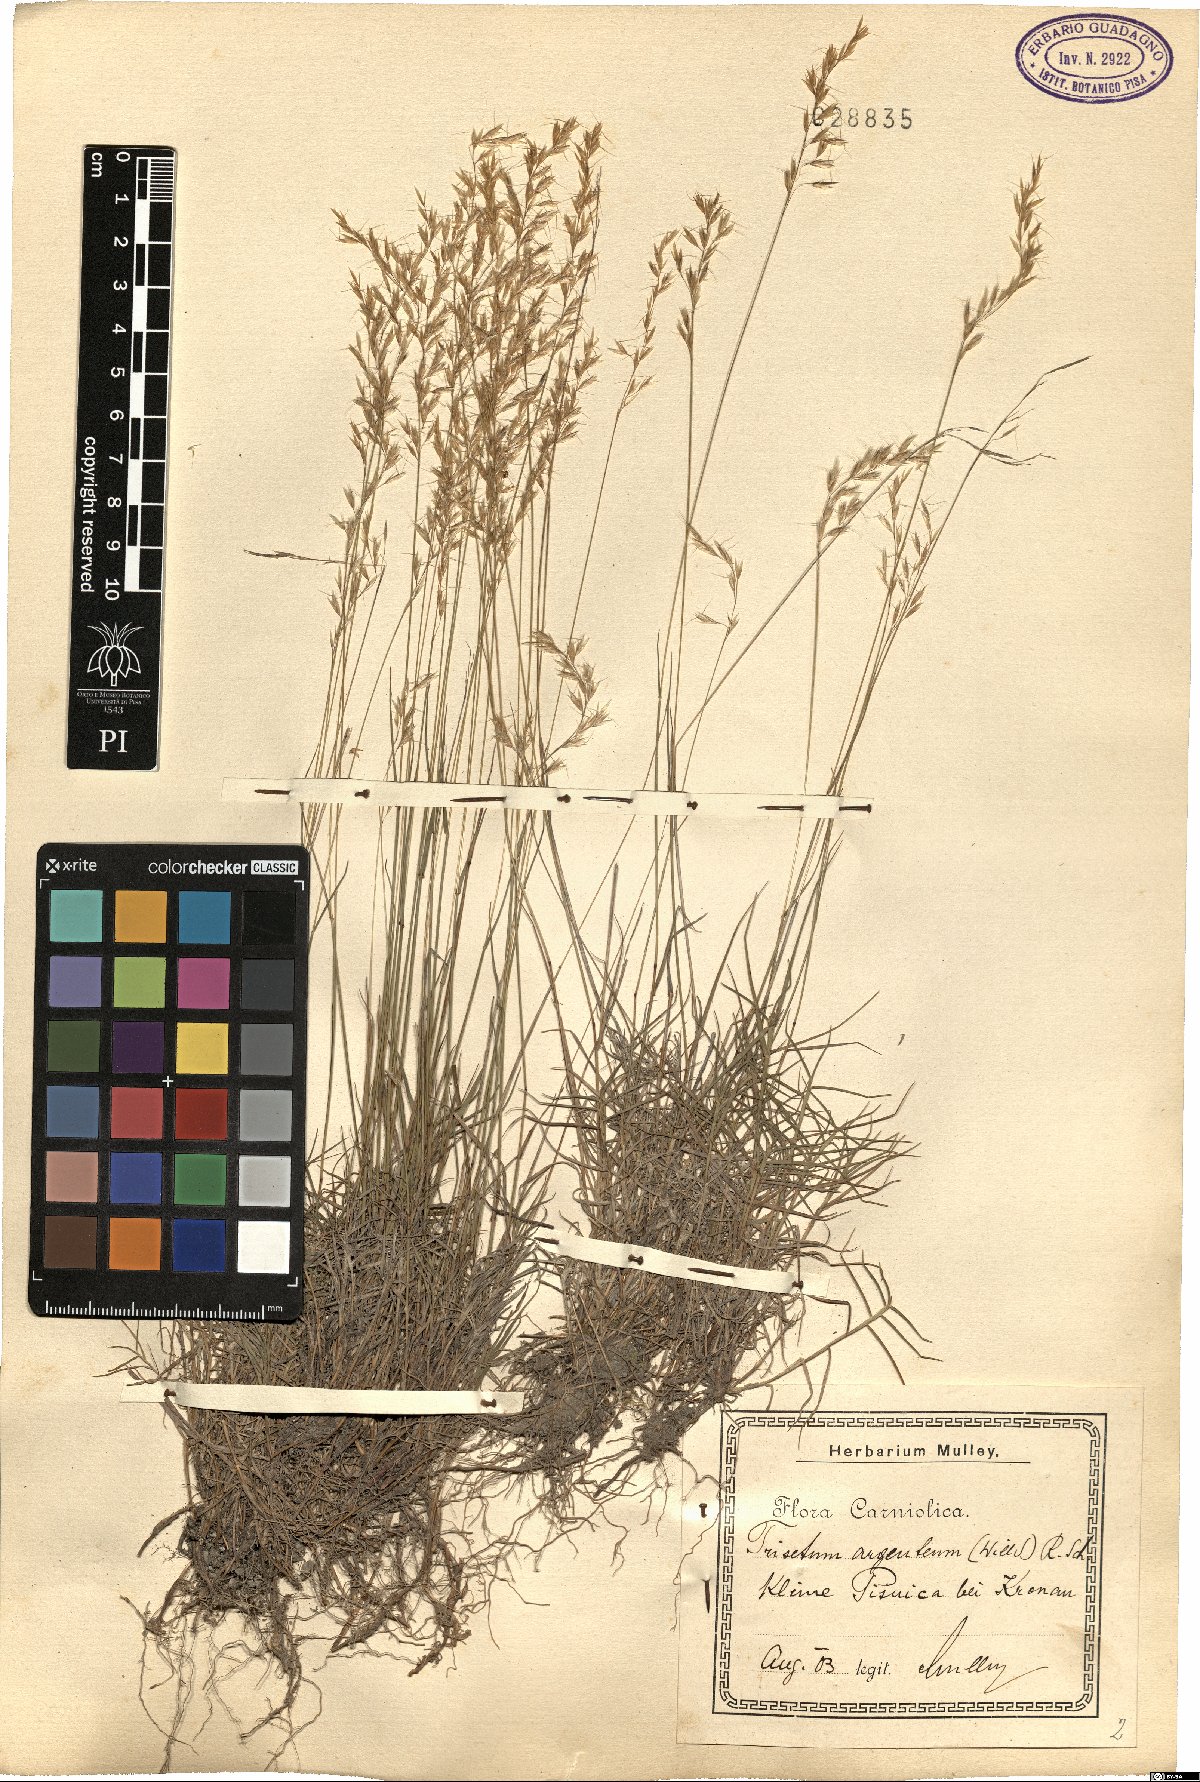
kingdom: Plantae
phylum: Tracheophyta
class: Liliopsida
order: Poales
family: Poaceae
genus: Trisetum
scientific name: Trisetum argenteum
